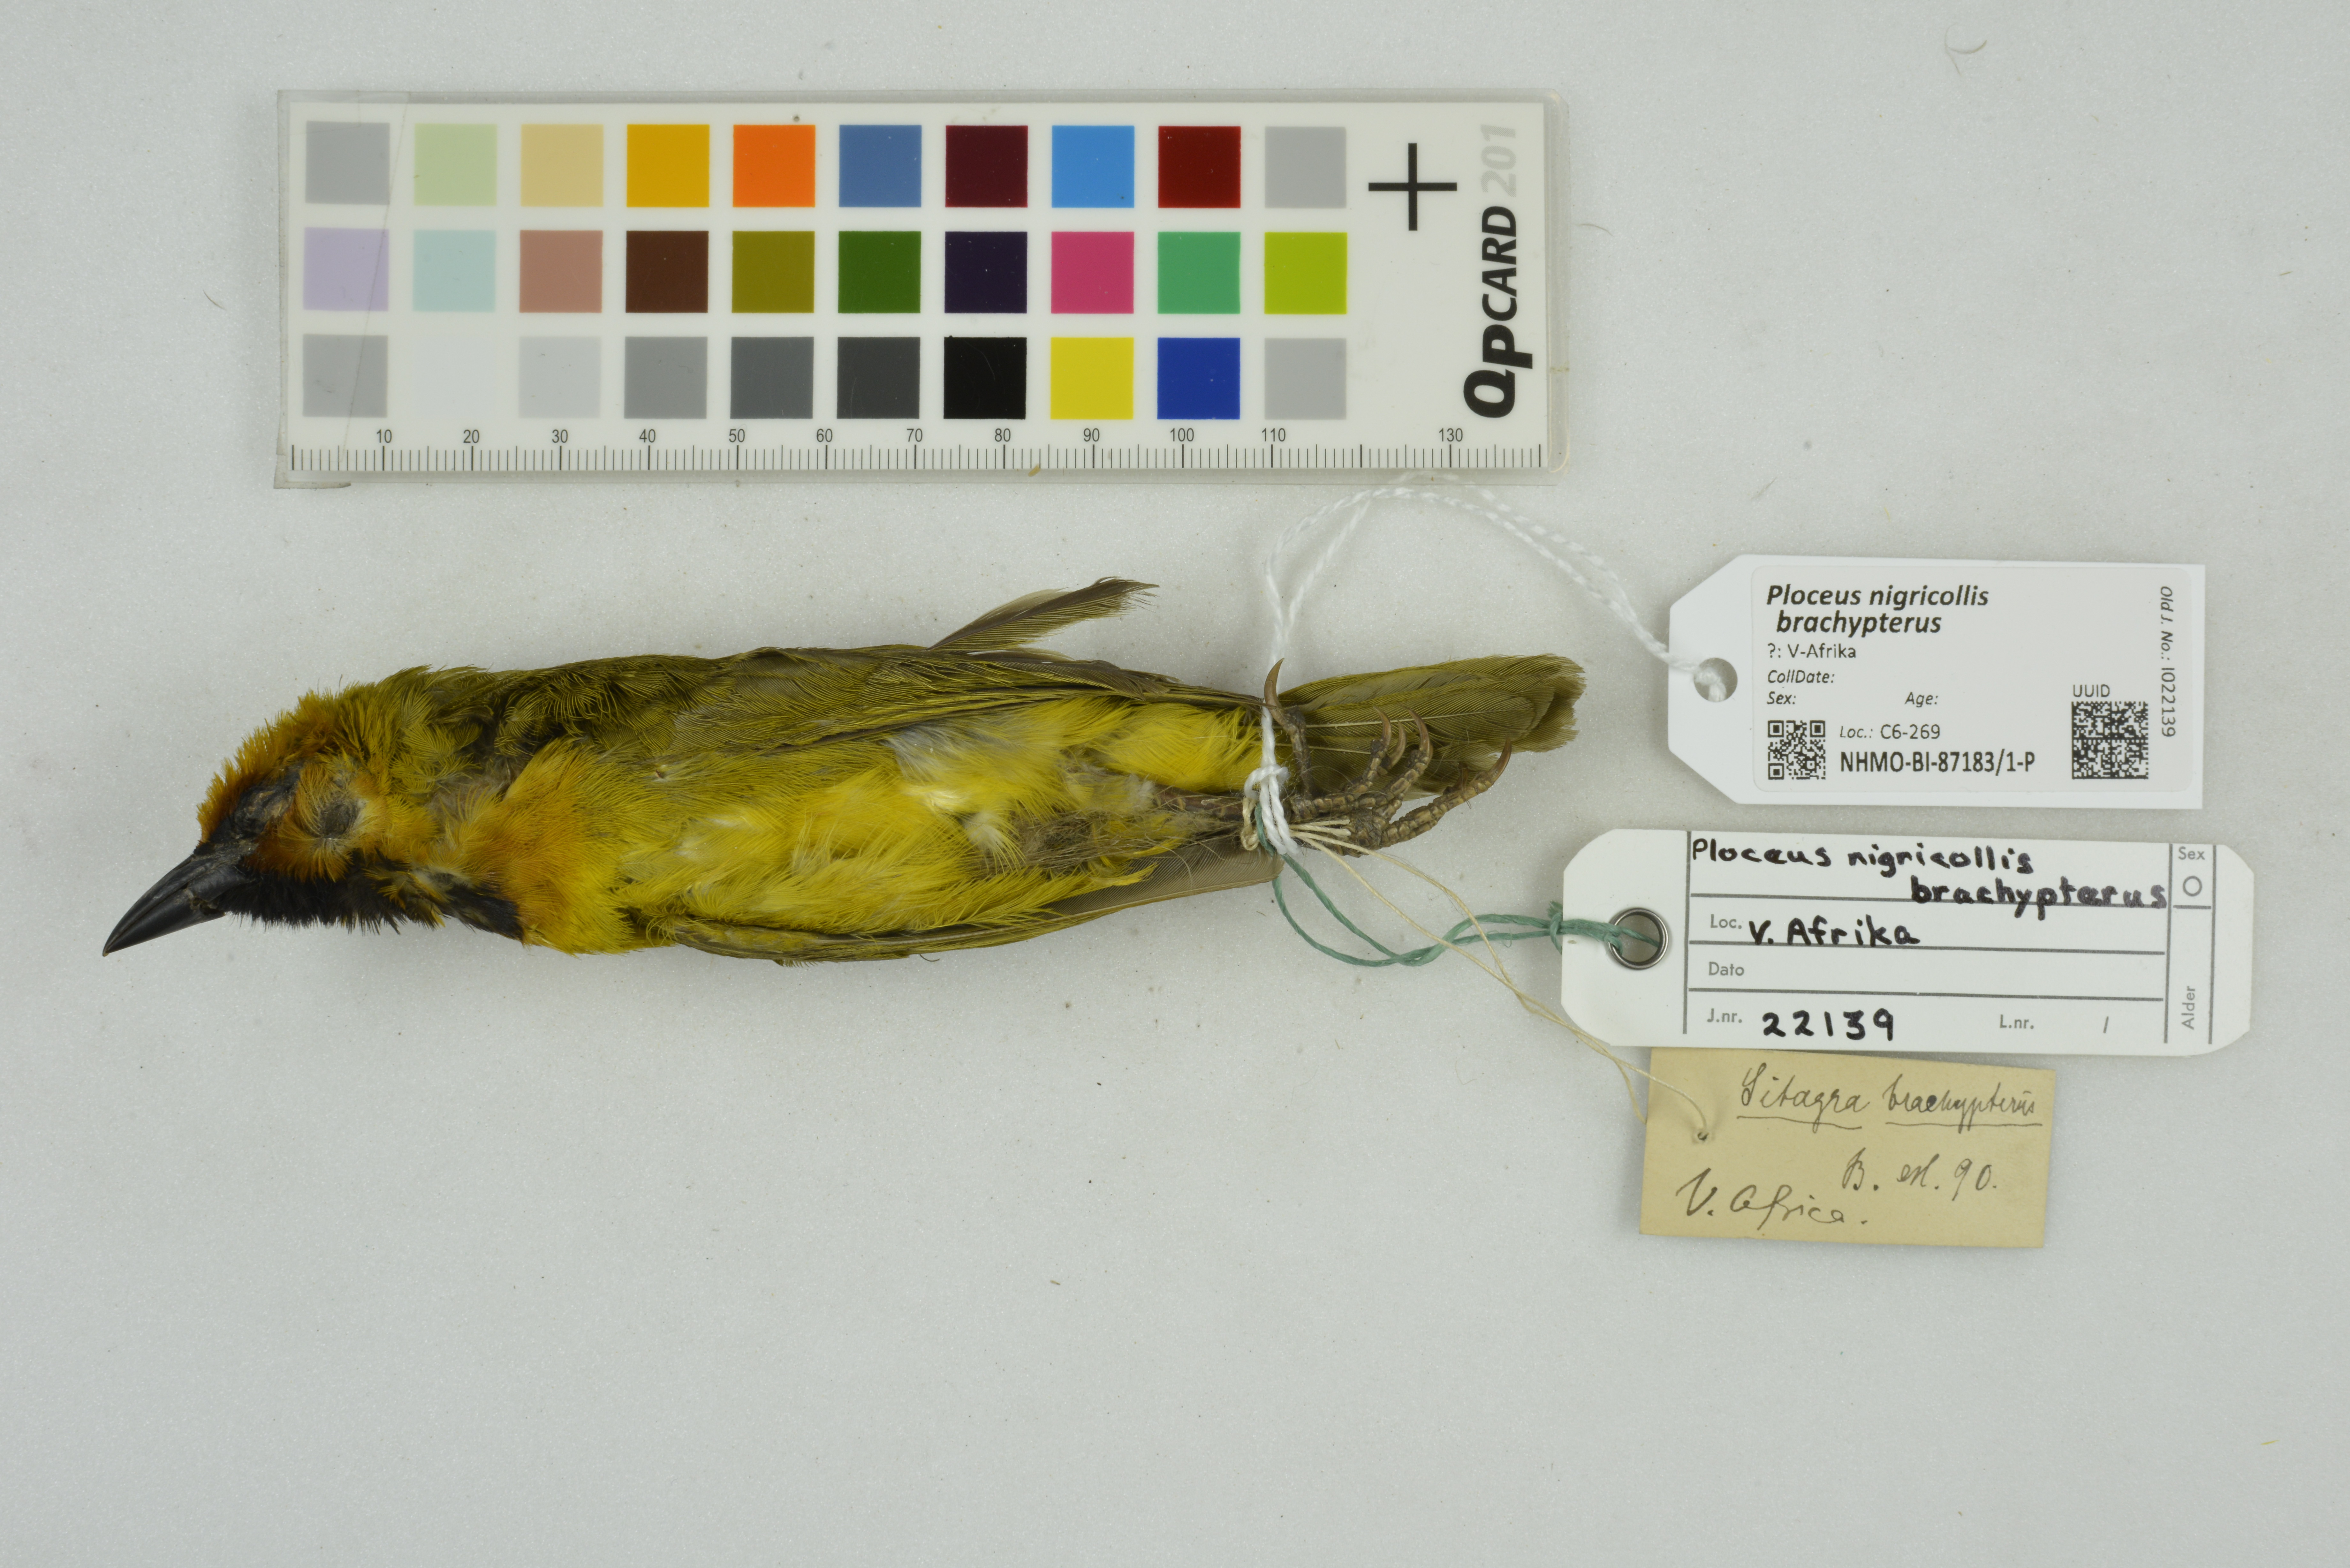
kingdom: Animalia
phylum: Chordata
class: Aves
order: Passeriformes
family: Ploceidae
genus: Ploceus
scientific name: Ploceus nigricollis
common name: Black-necked weaver
